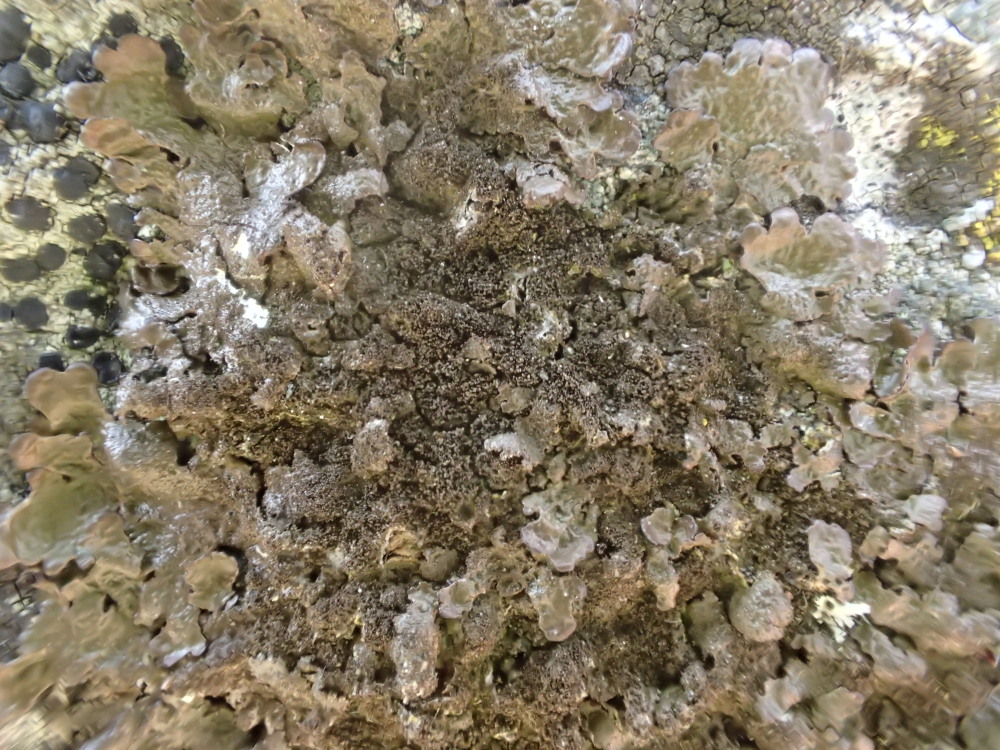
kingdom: Fungi
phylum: Ascomycota
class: Lecanoromycetes
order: Lecanorales
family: Parmeliaceae
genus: Melanelixia
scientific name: Melanelixia fuliginosa
